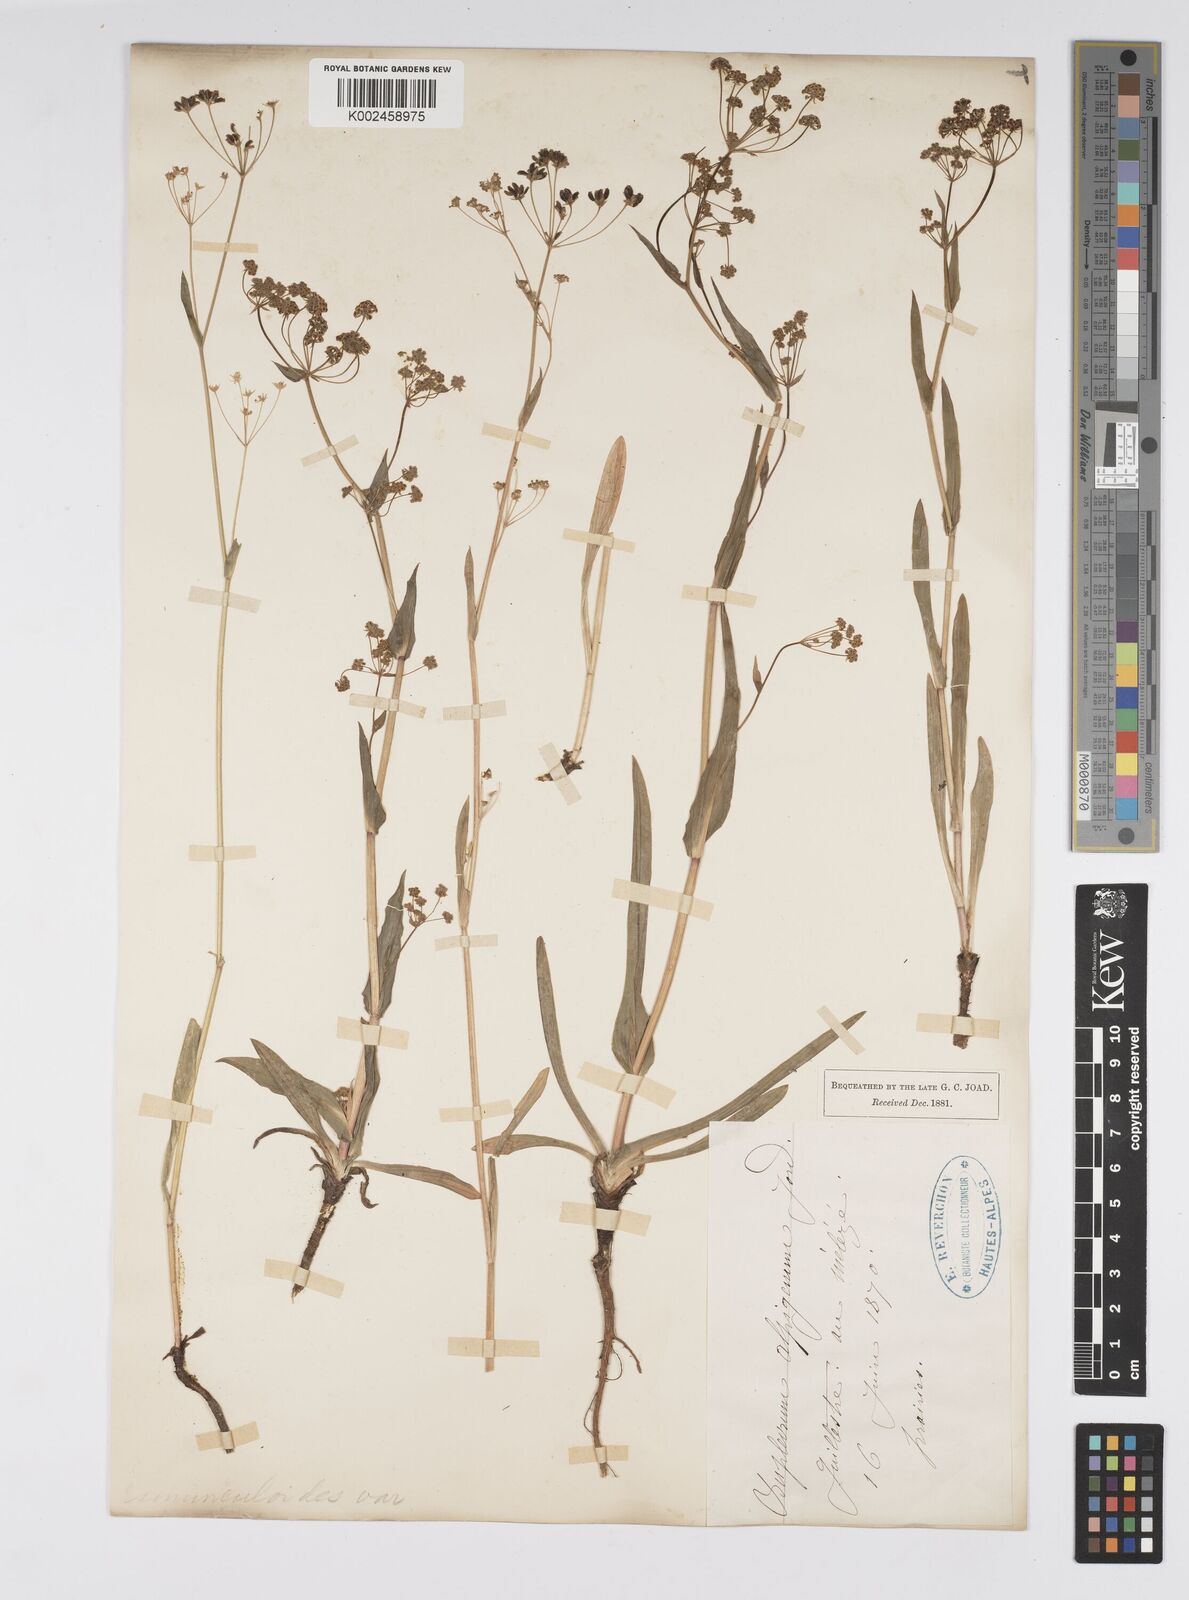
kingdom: Plantae
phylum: Tracheophyta
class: Magnoliopsida
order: Apiales
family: Apiaceae
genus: Bupleurum
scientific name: Bupleurum falcatum
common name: Sickle-leaved hare's-ear
